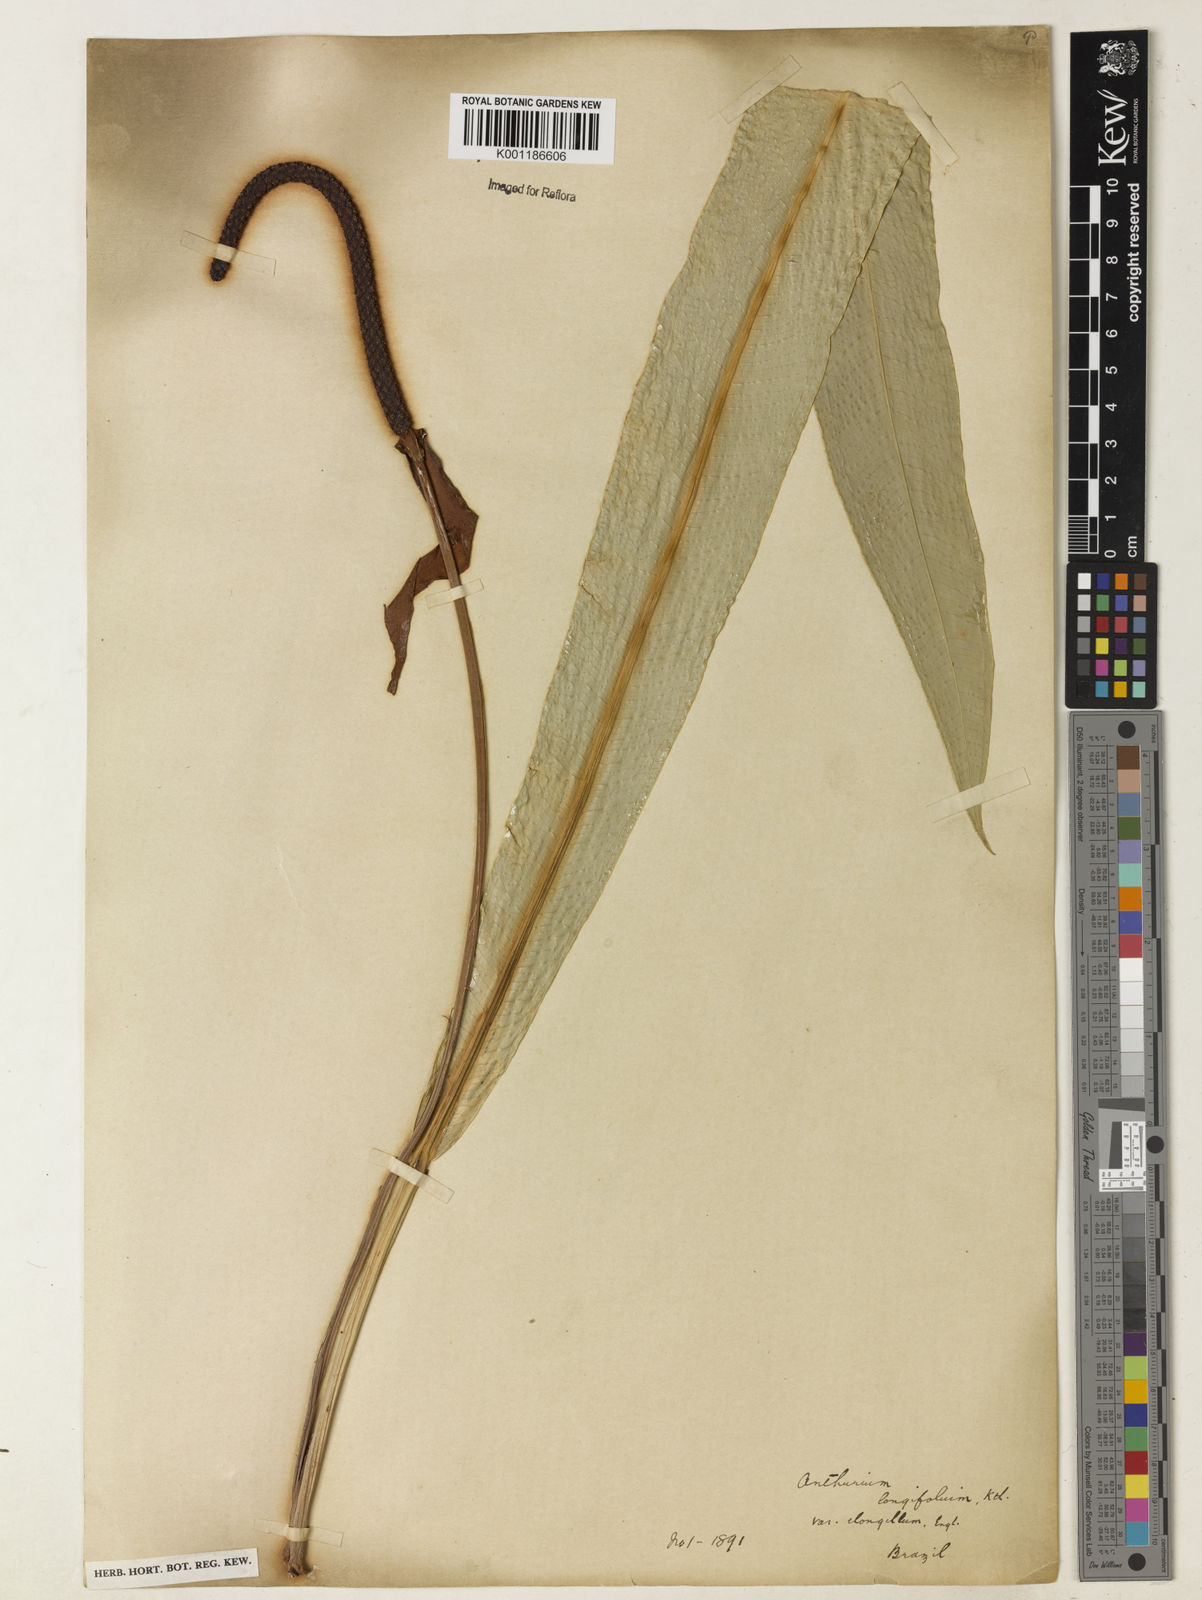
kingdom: Plantae
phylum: Tracheophyta
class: Liliopsida
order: Alismatales
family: Araceae
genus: Anthurium
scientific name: Anthurium longifolium
